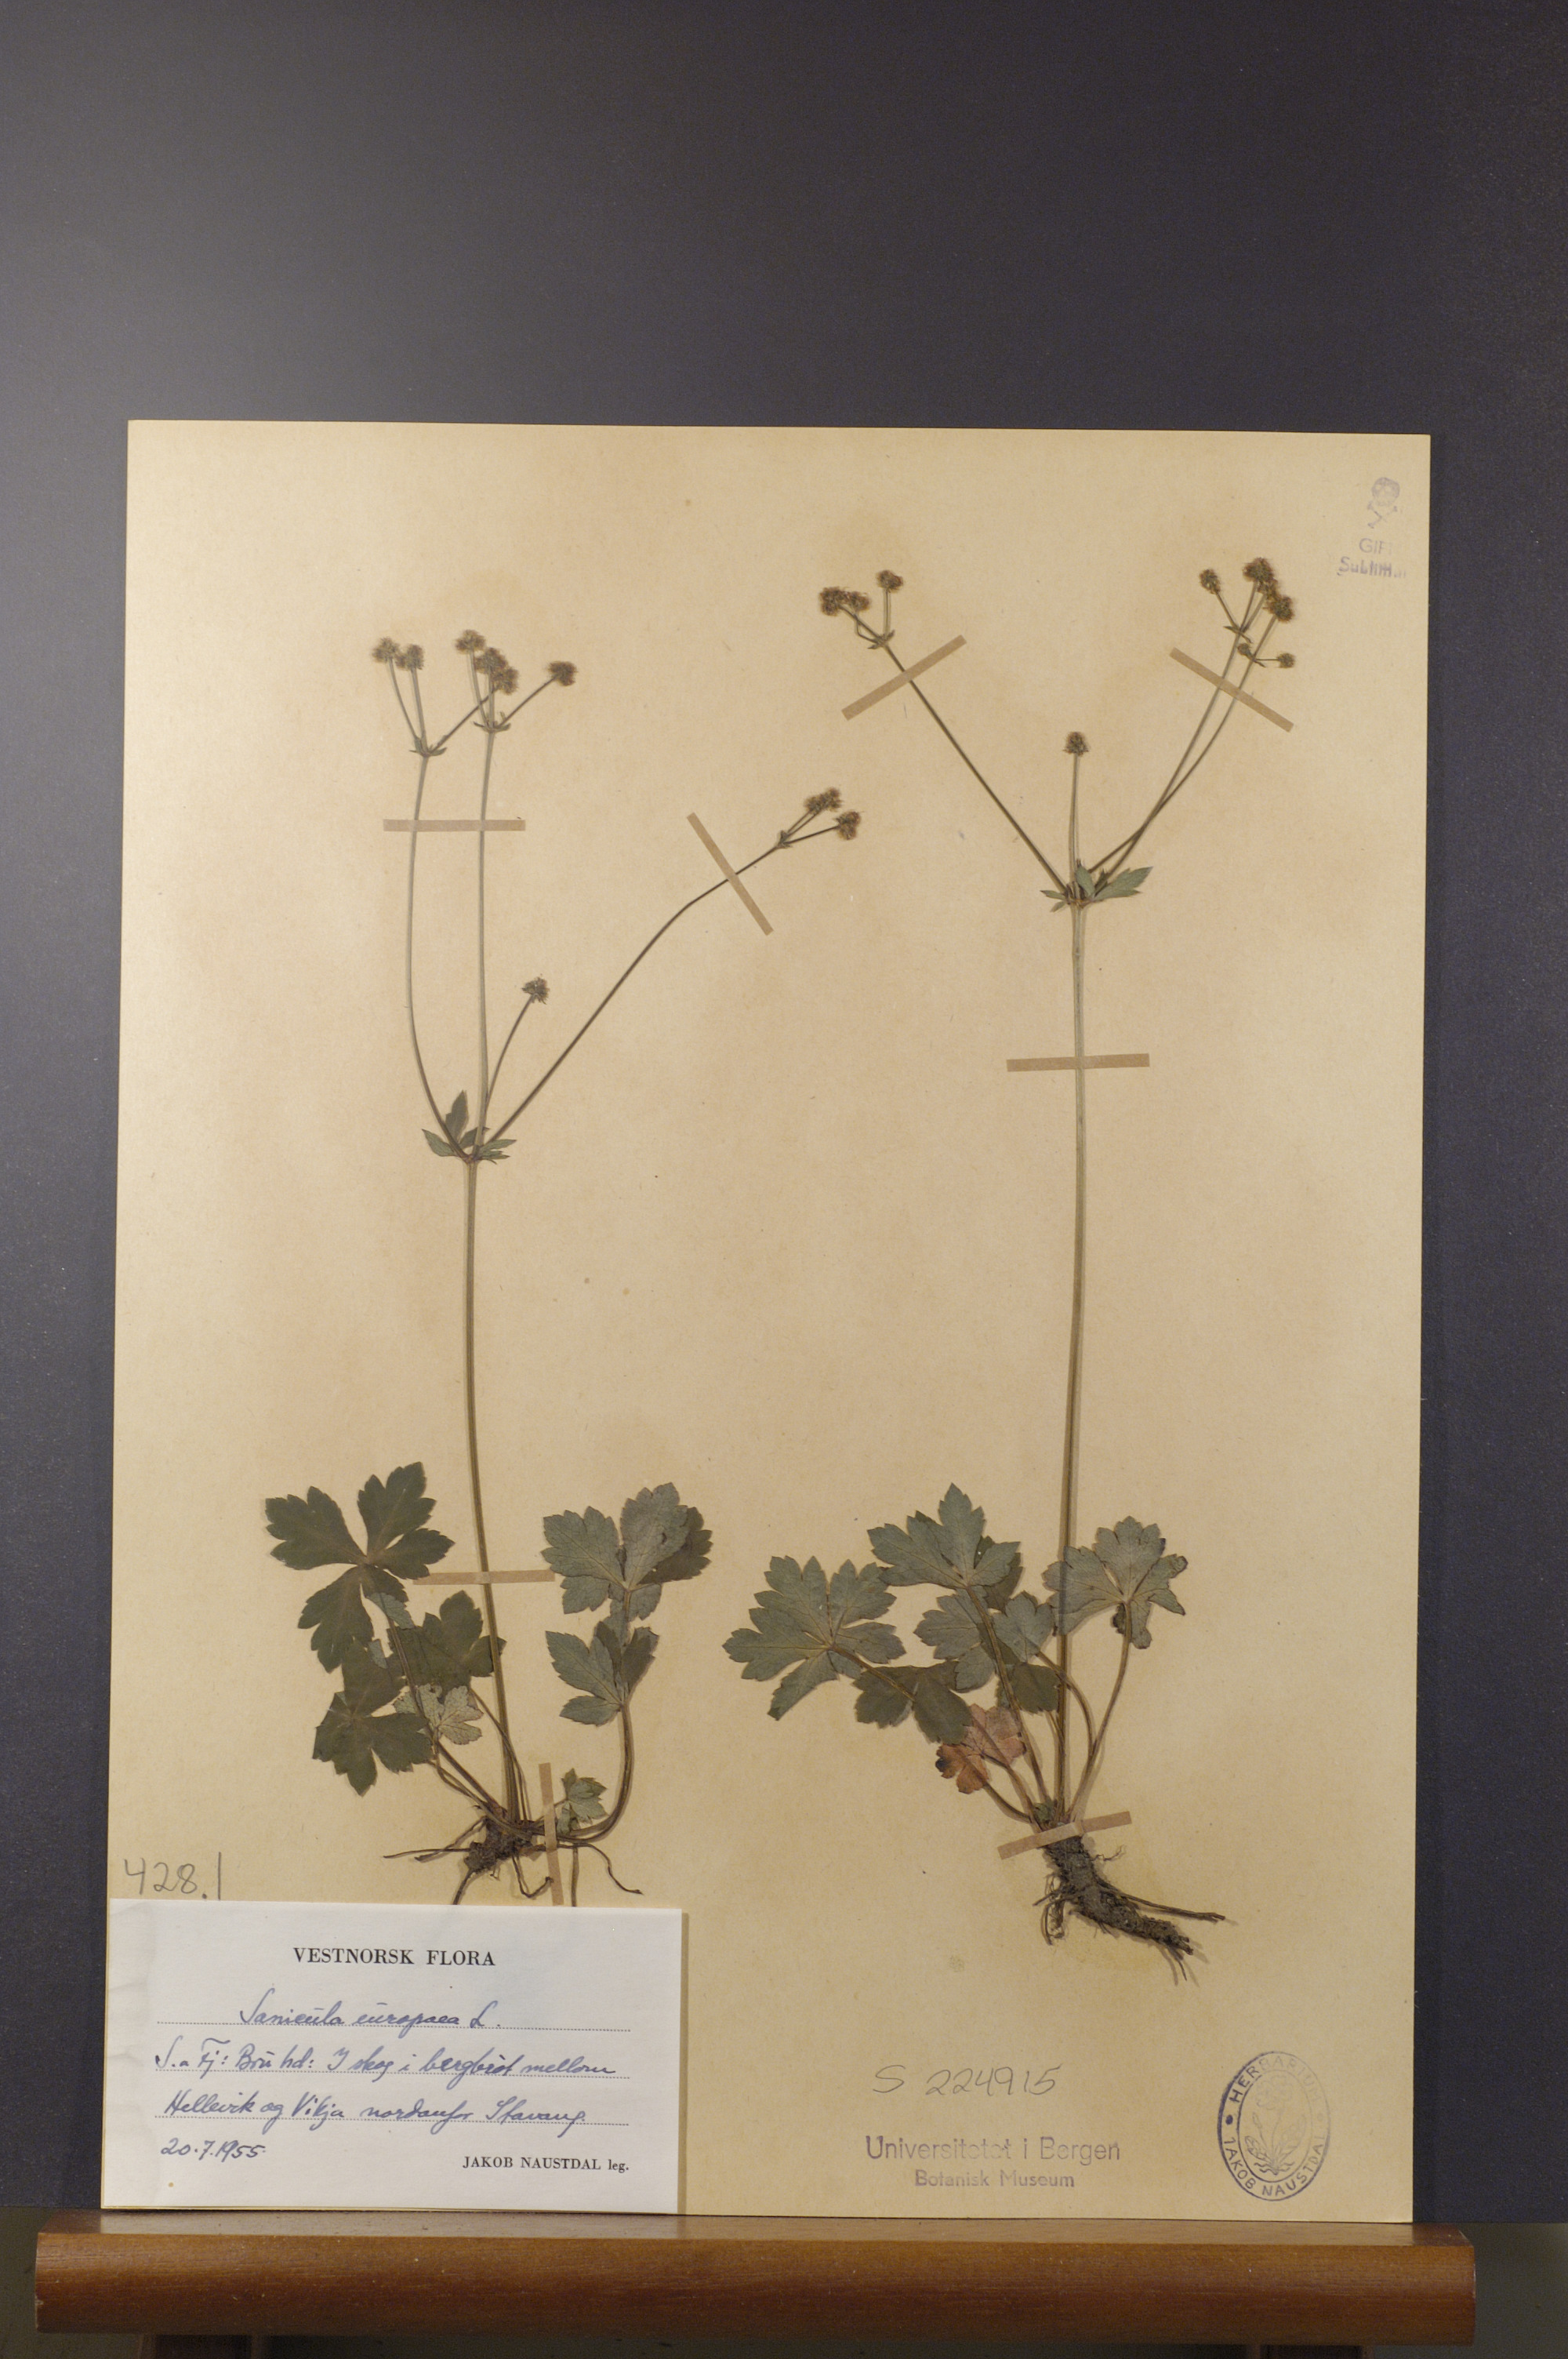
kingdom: Plantae
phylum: Tracheophyta
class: Magnoliopsida
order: Apiales
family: Apiaceae
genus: Sanicula
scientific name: Sanicula europaea
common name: Sanicle
